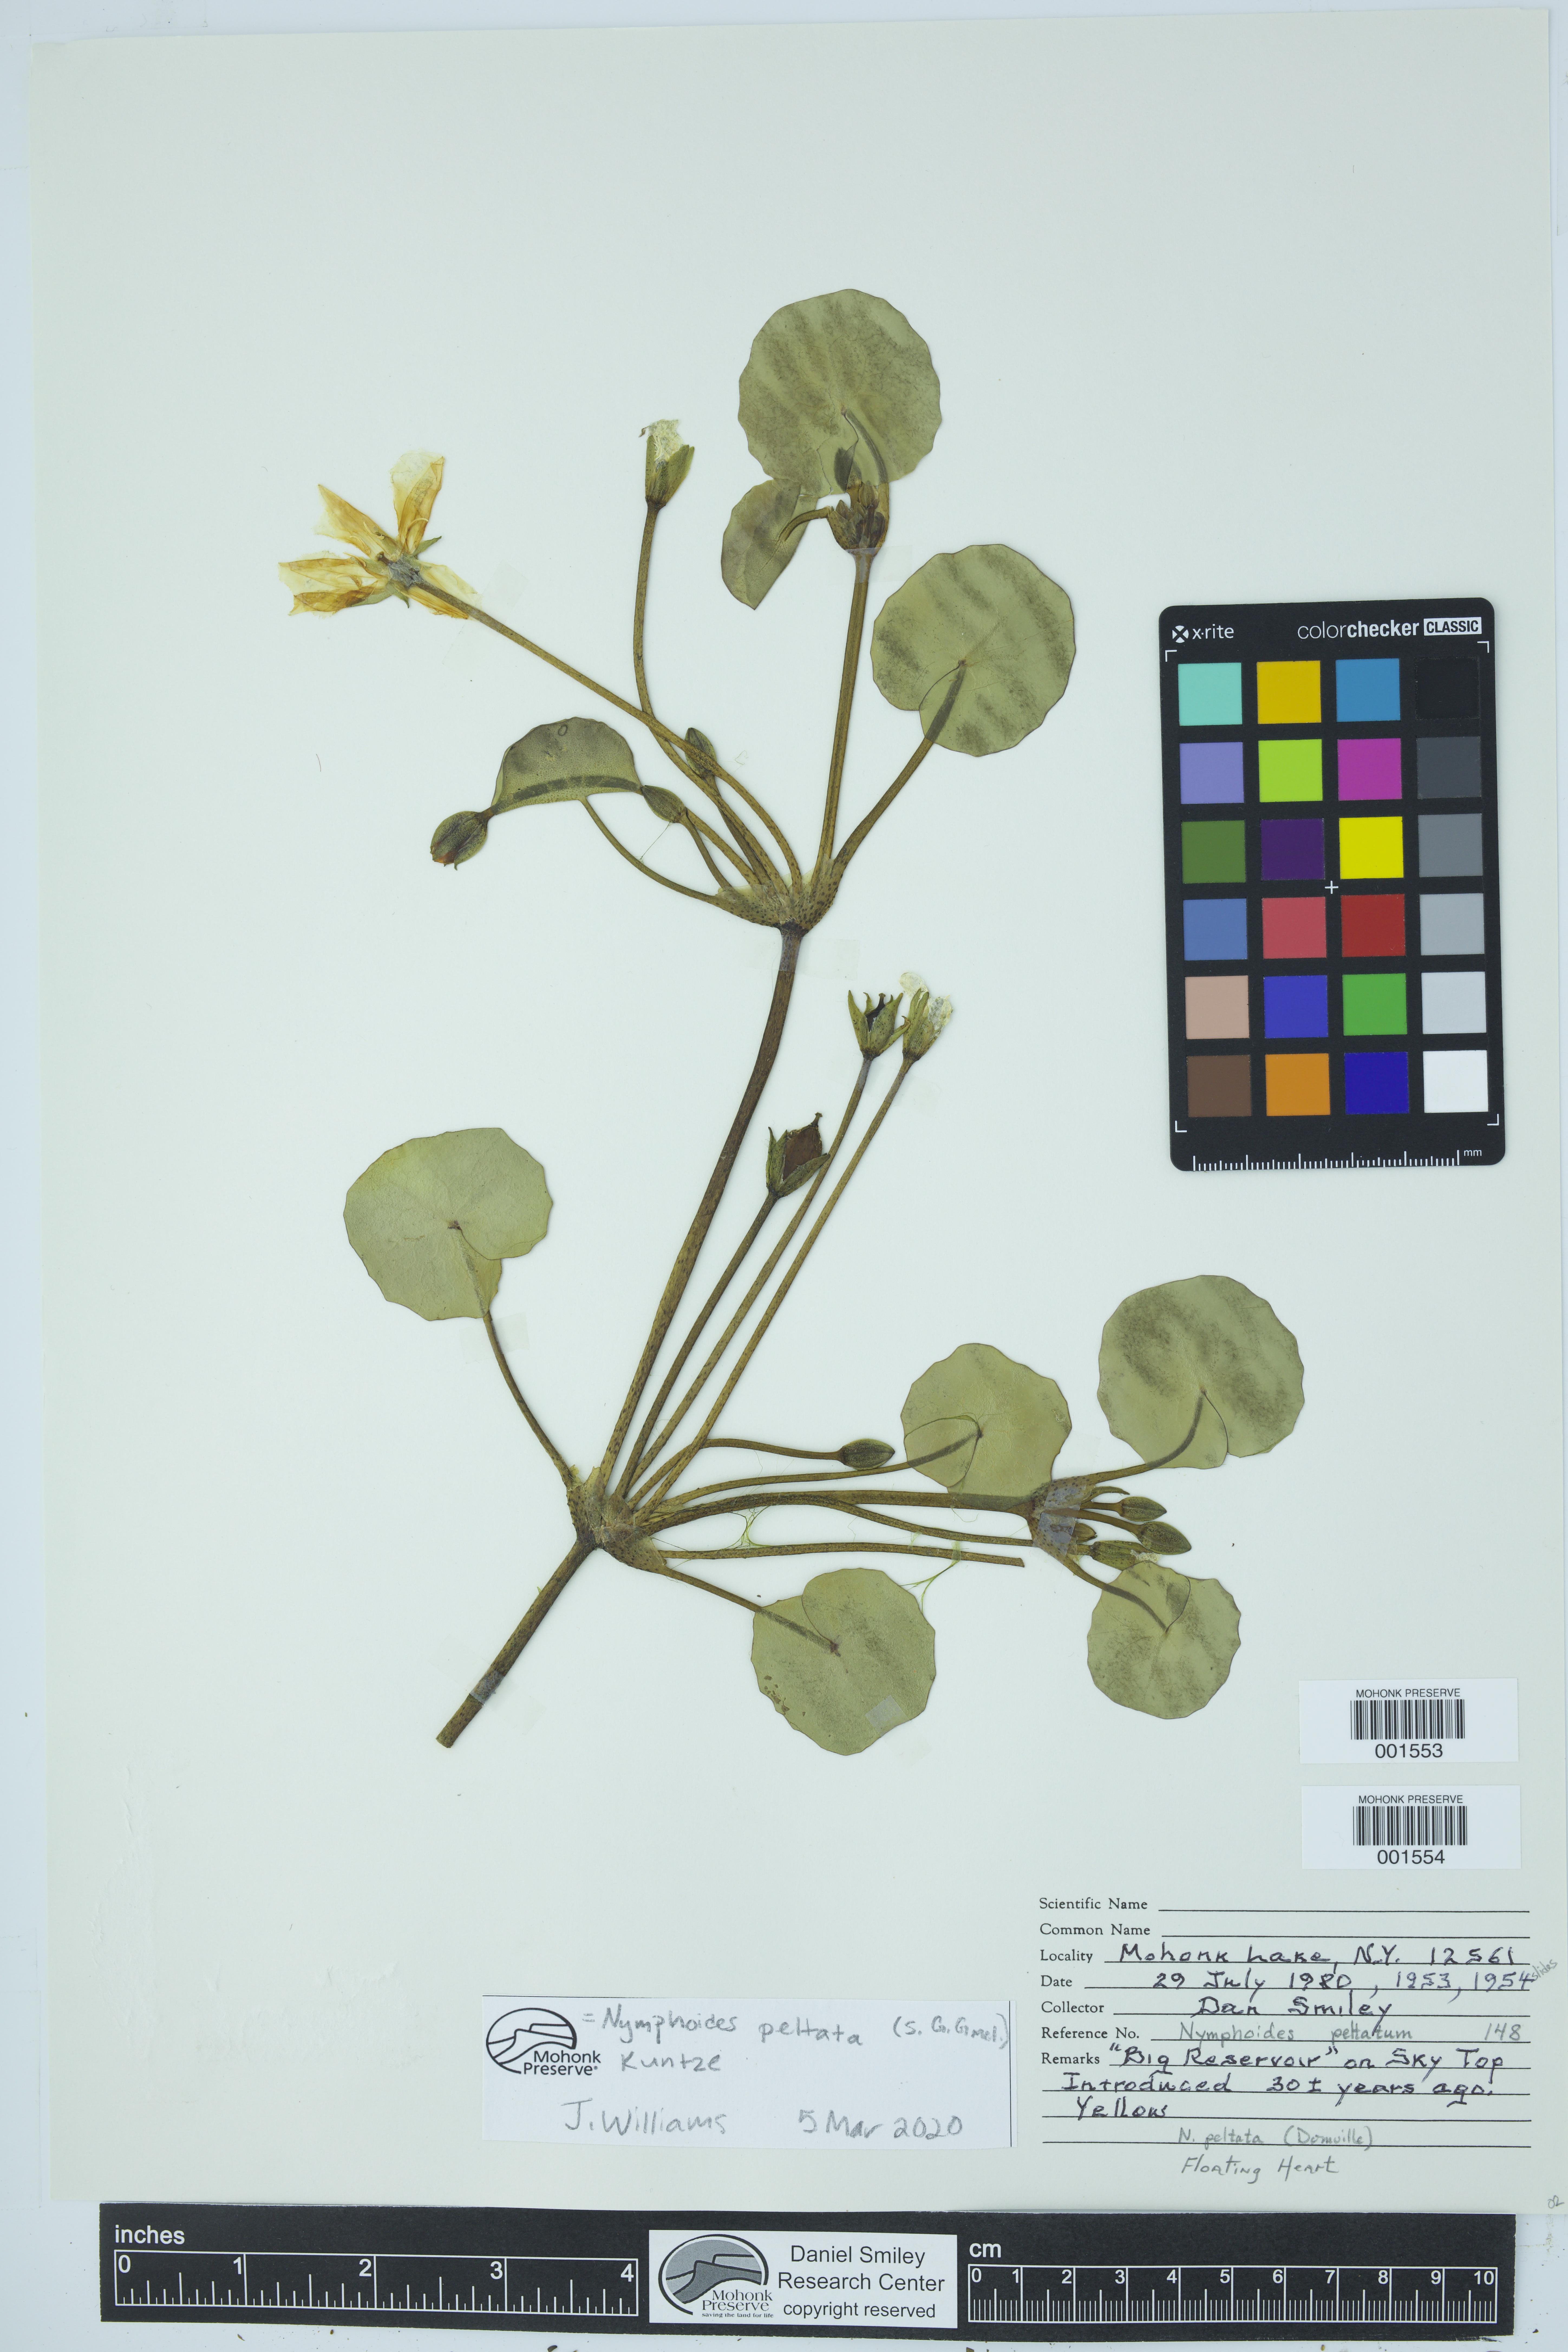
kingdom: Plantae
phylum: Tracheophyta
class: Magnoliopsida
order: Asterales
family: Menyanthaceae
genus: Nymphoides
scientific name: Nymphoides peltata
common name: Fringed water-lily
